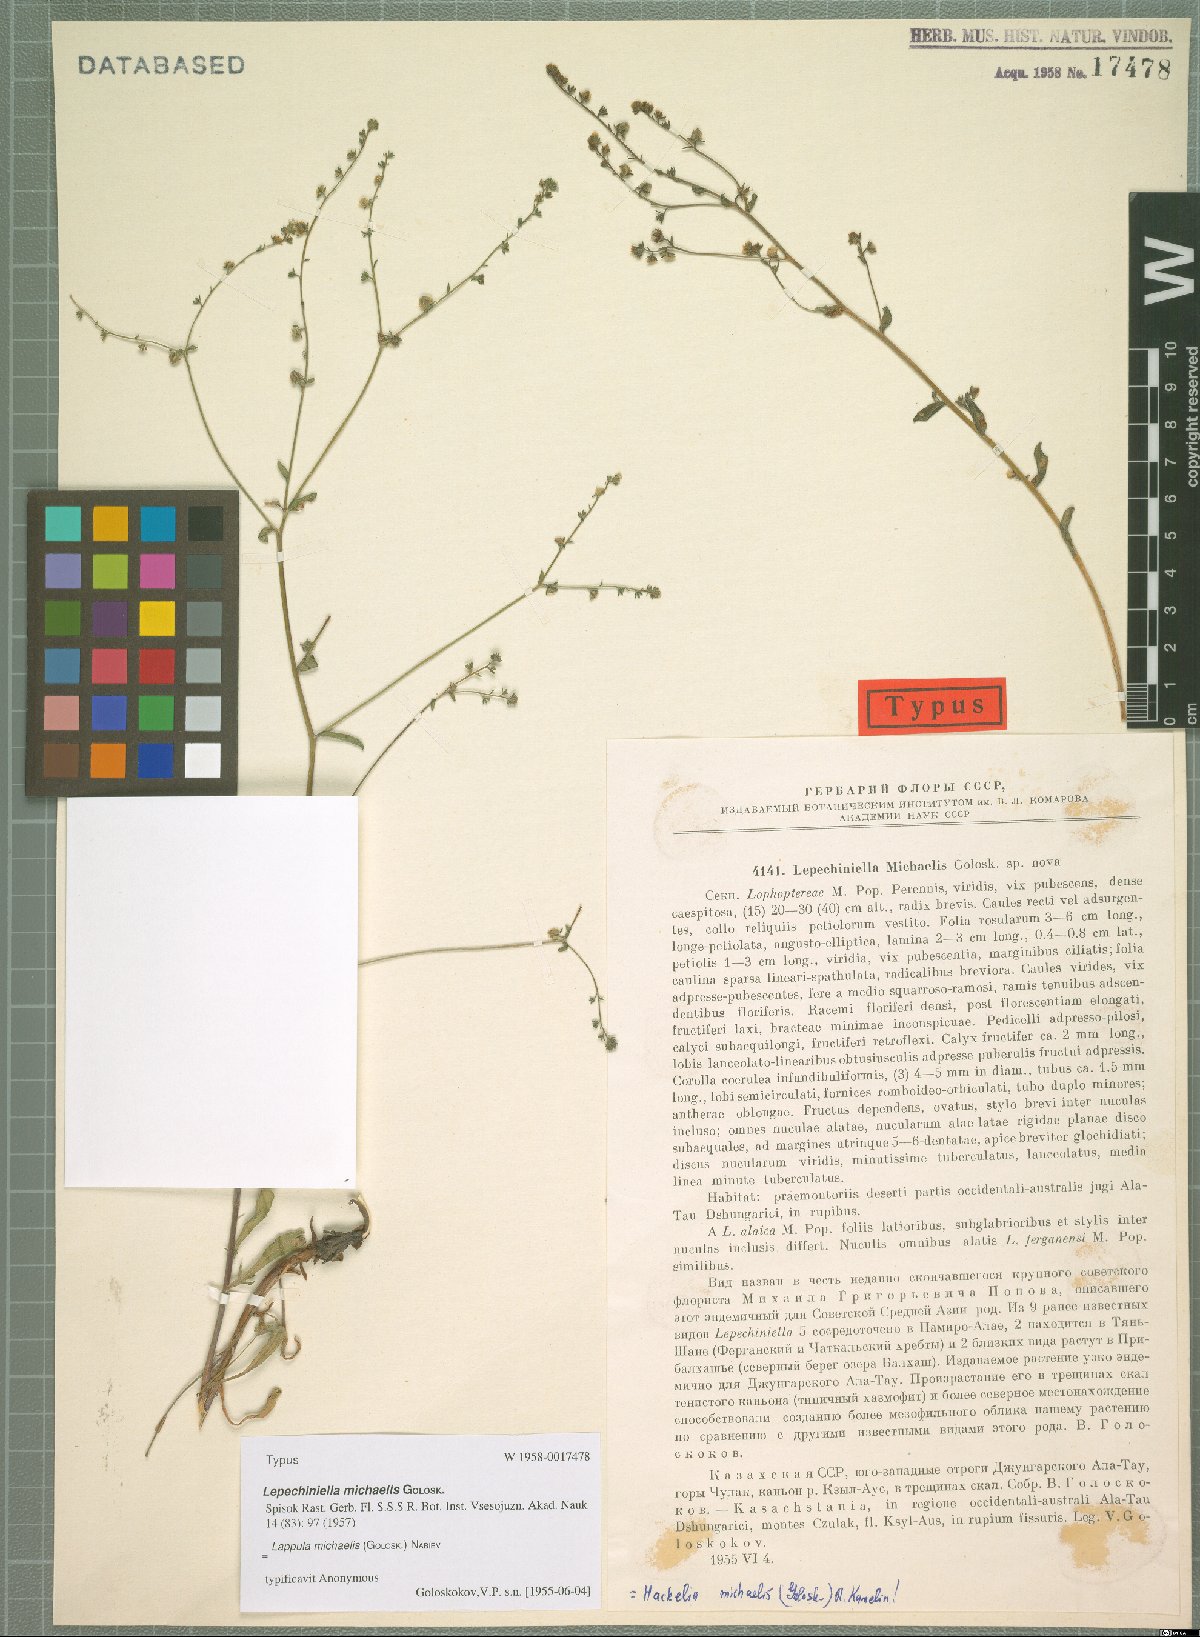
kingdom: Plantae
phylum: Tracheophyta
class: Magnoliopsida
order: Boraginales
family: Boraginaceae
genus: Lepechiniella
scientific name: Lepechiniella michaelis
